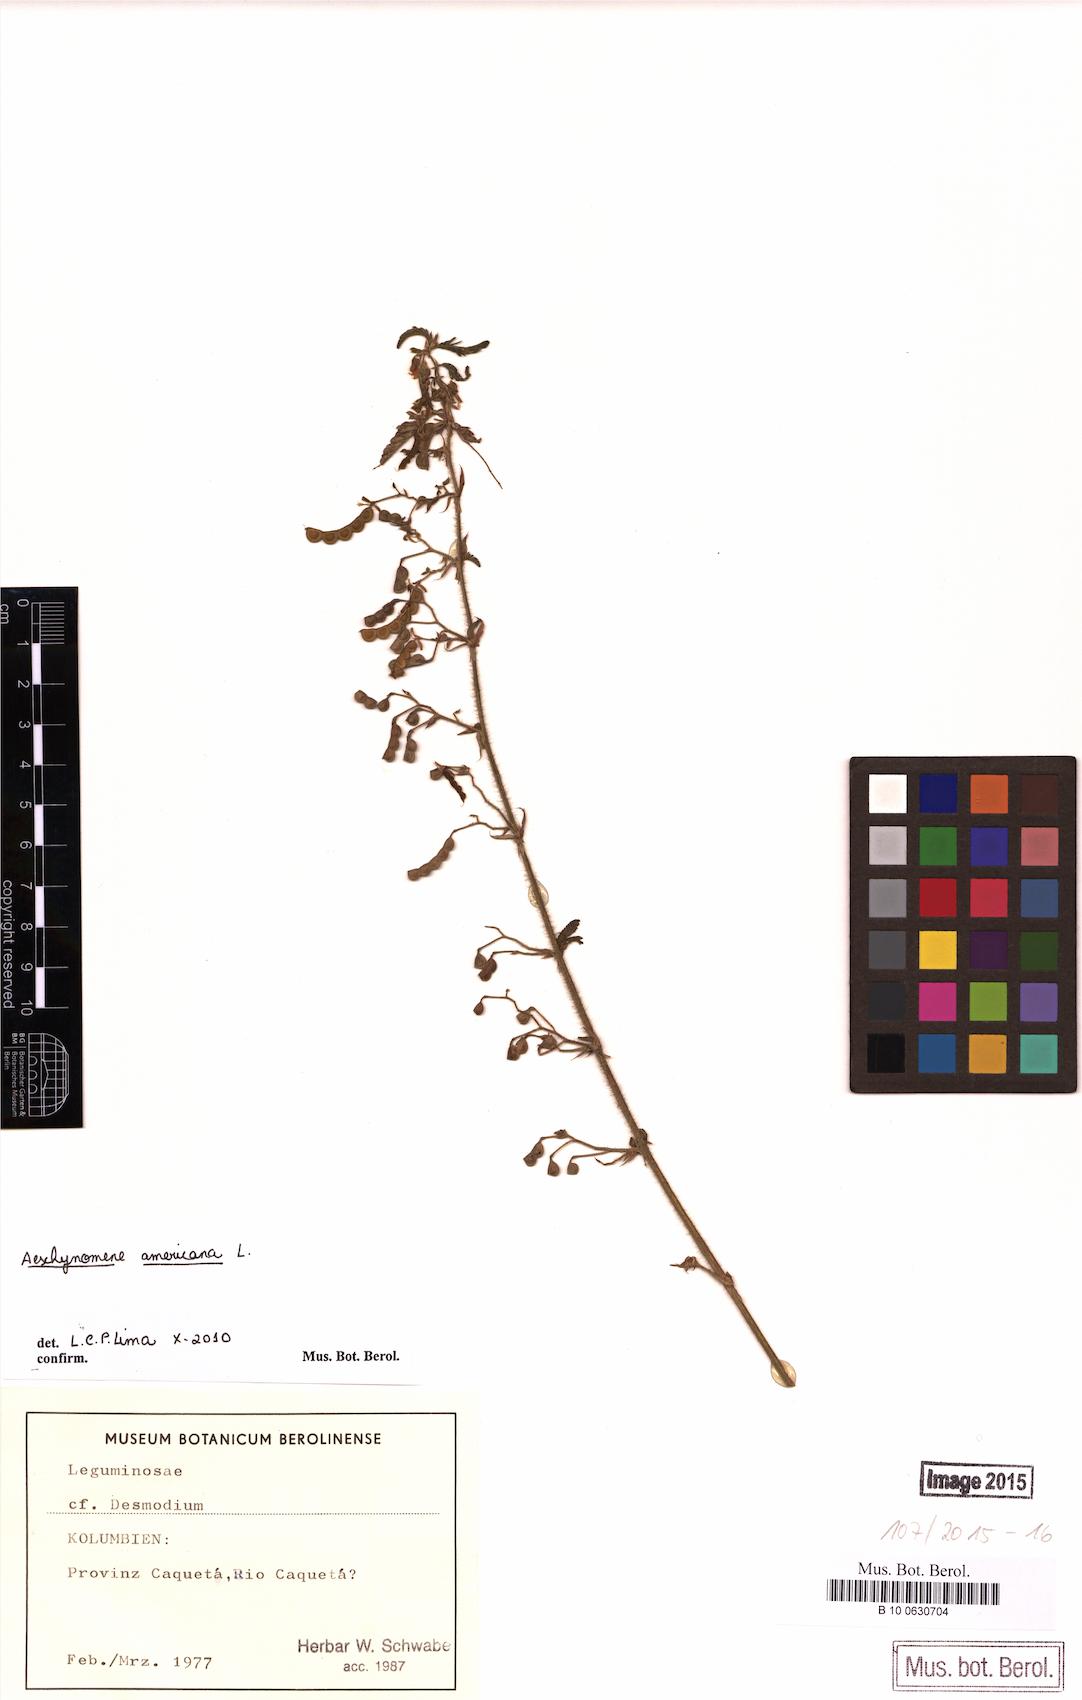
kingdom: Plantae
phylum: Tracheophyta
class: Magnoliopsida
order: Fabales
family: Fabaceae
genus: Aeschynomene
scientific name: Aeschynomene americana
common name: Joint-vetch
